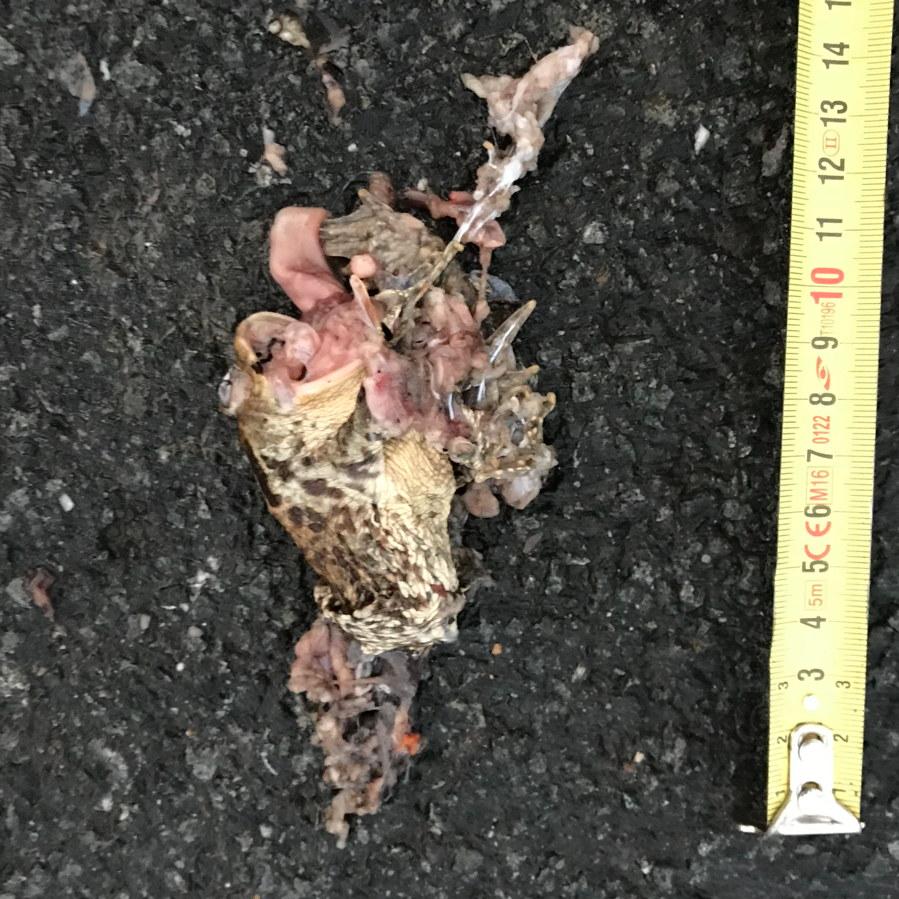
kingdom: Animalia
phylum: Chordata
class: Amphibia
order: Anura
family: Bufonidae
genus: Epidalea
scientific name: Epidalea calamita
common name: Natterjack toad
